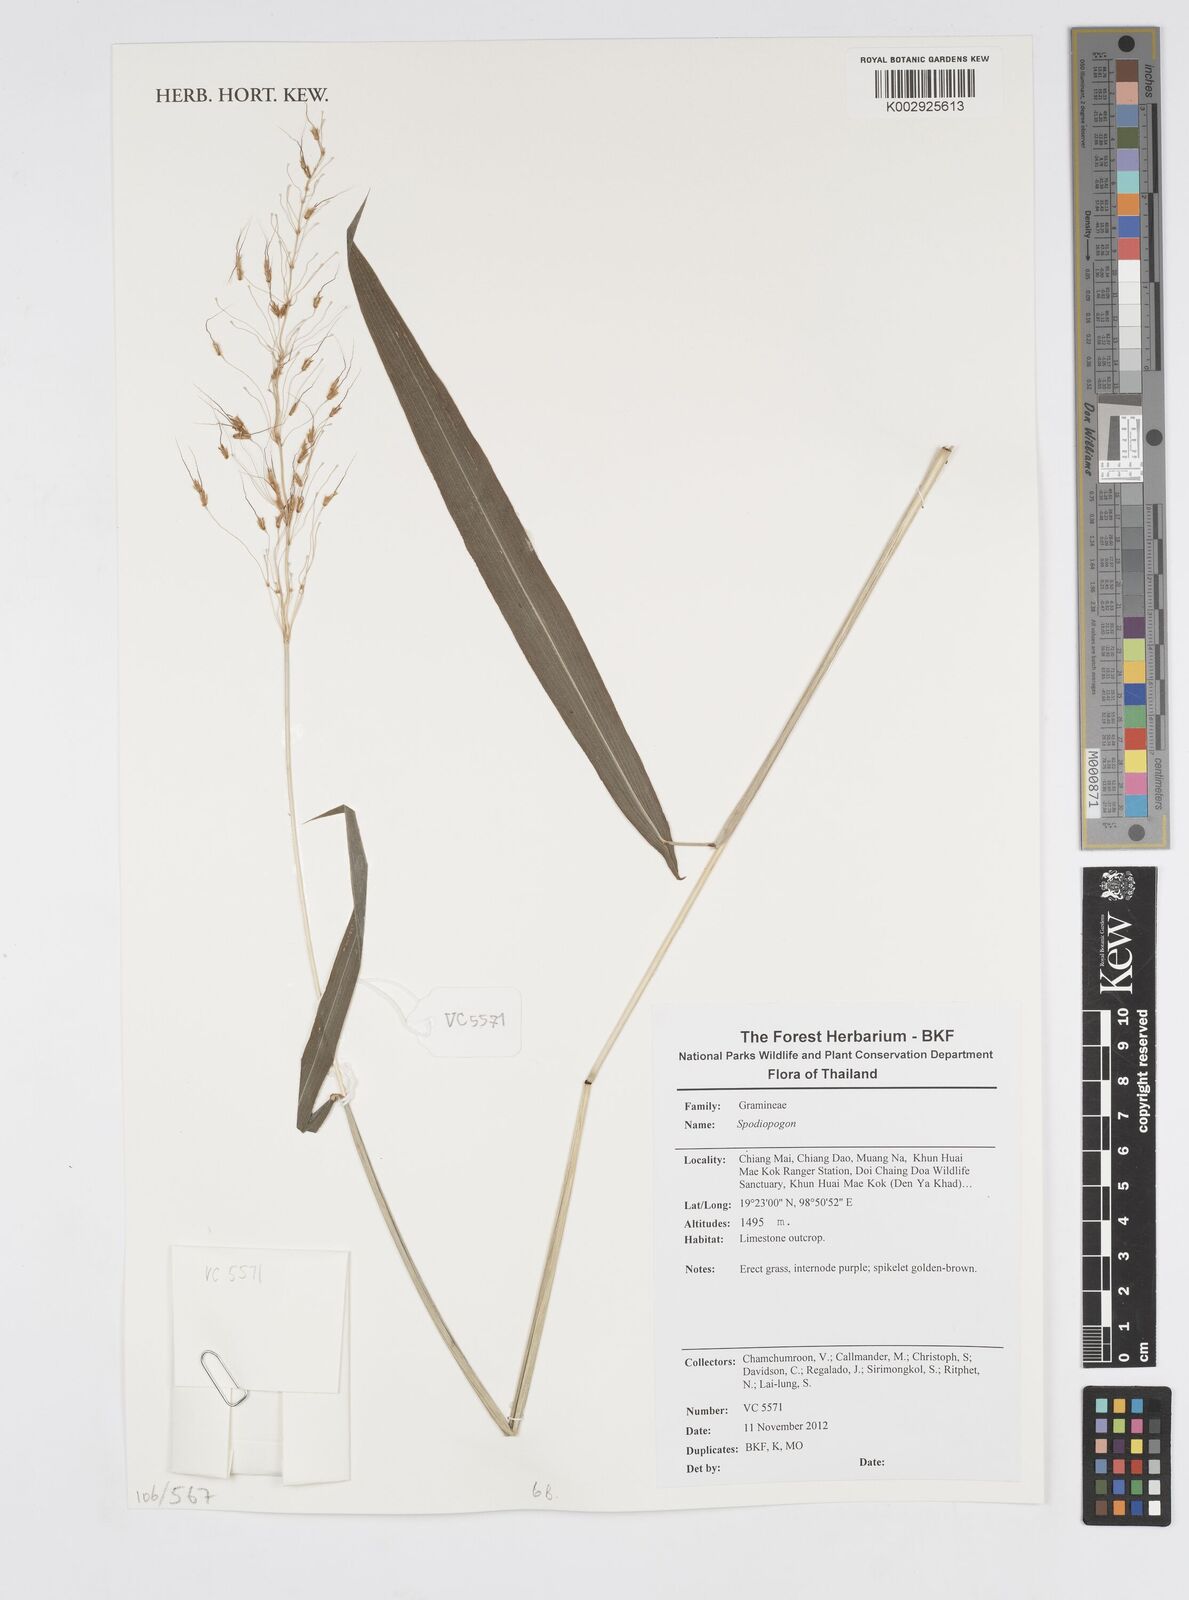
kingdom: Plantae
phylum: Tracheophyta
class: Liliopsida
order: Poales
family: Poaceae
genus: Spodiopogon
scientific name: Spodiopogon lacei
